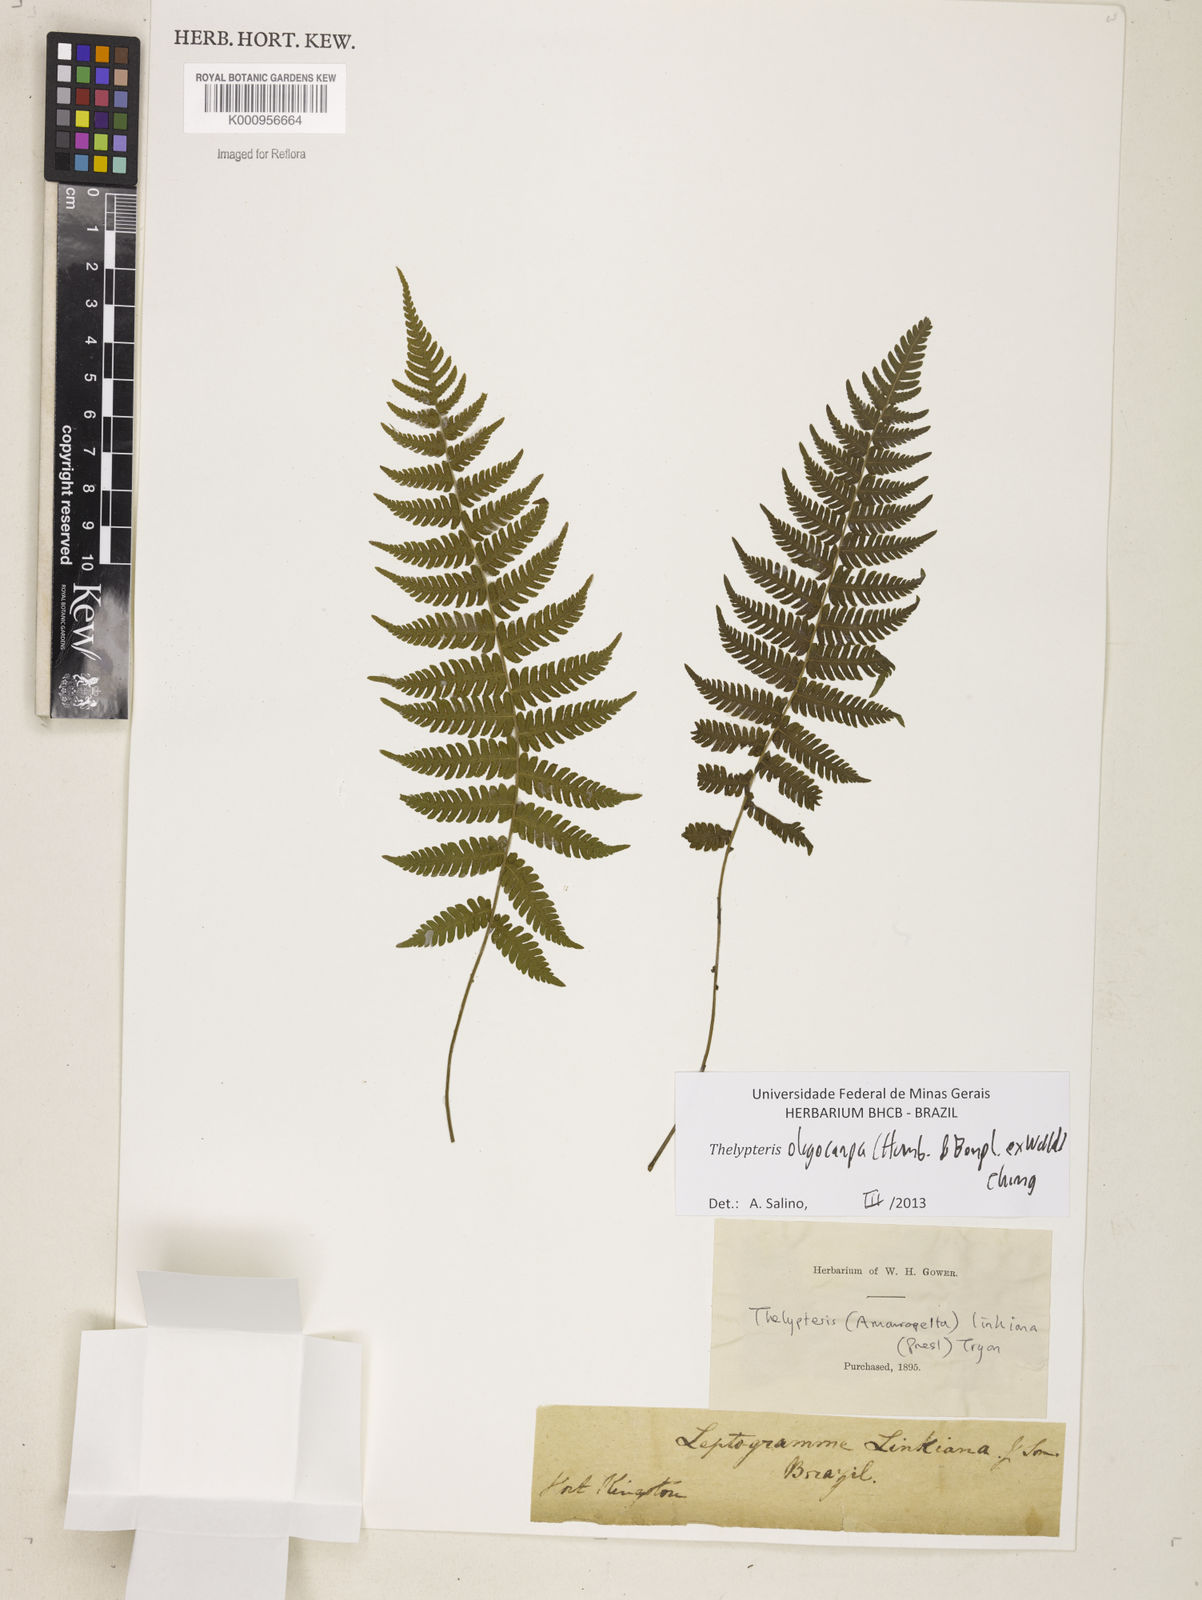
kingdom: Plantae
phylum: Tracheophyta
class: Polypodiopsida
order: Polypodiales
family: Thelypteridaceae
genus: Amauropelta
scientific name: Amauropelta oligocarpa
